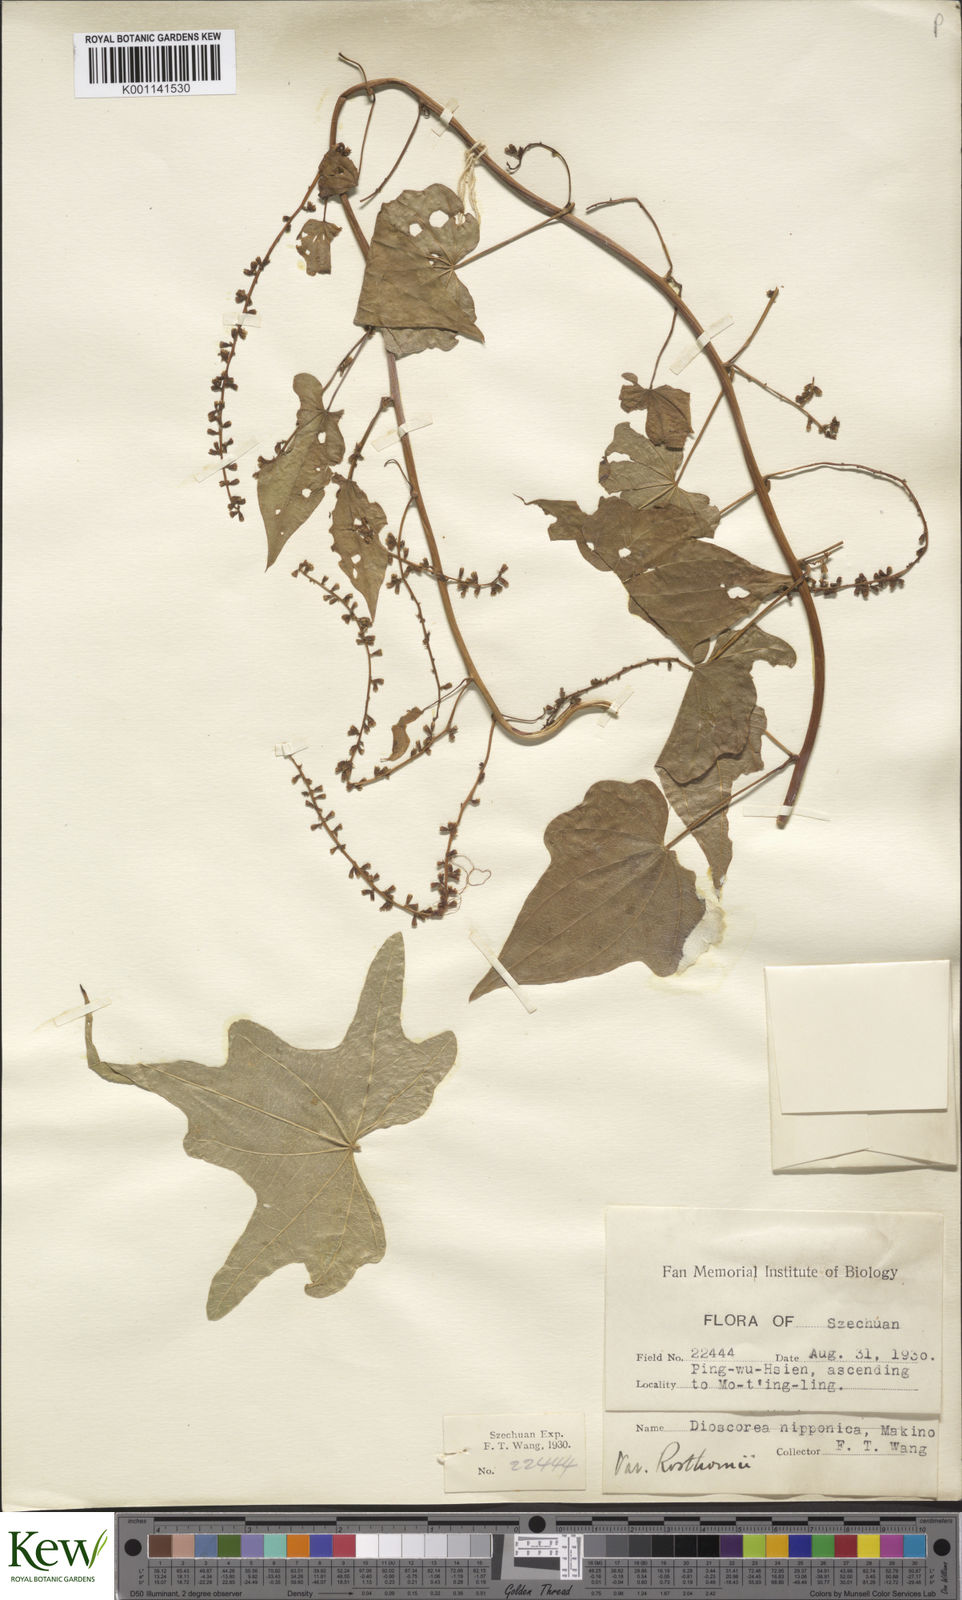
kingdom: Plantae
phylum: Tracheophyta
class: Liliopsida
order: Dioscoreales
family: Dioscoreaceae
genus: Dioscorea
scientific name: Dioscorea nipponica
